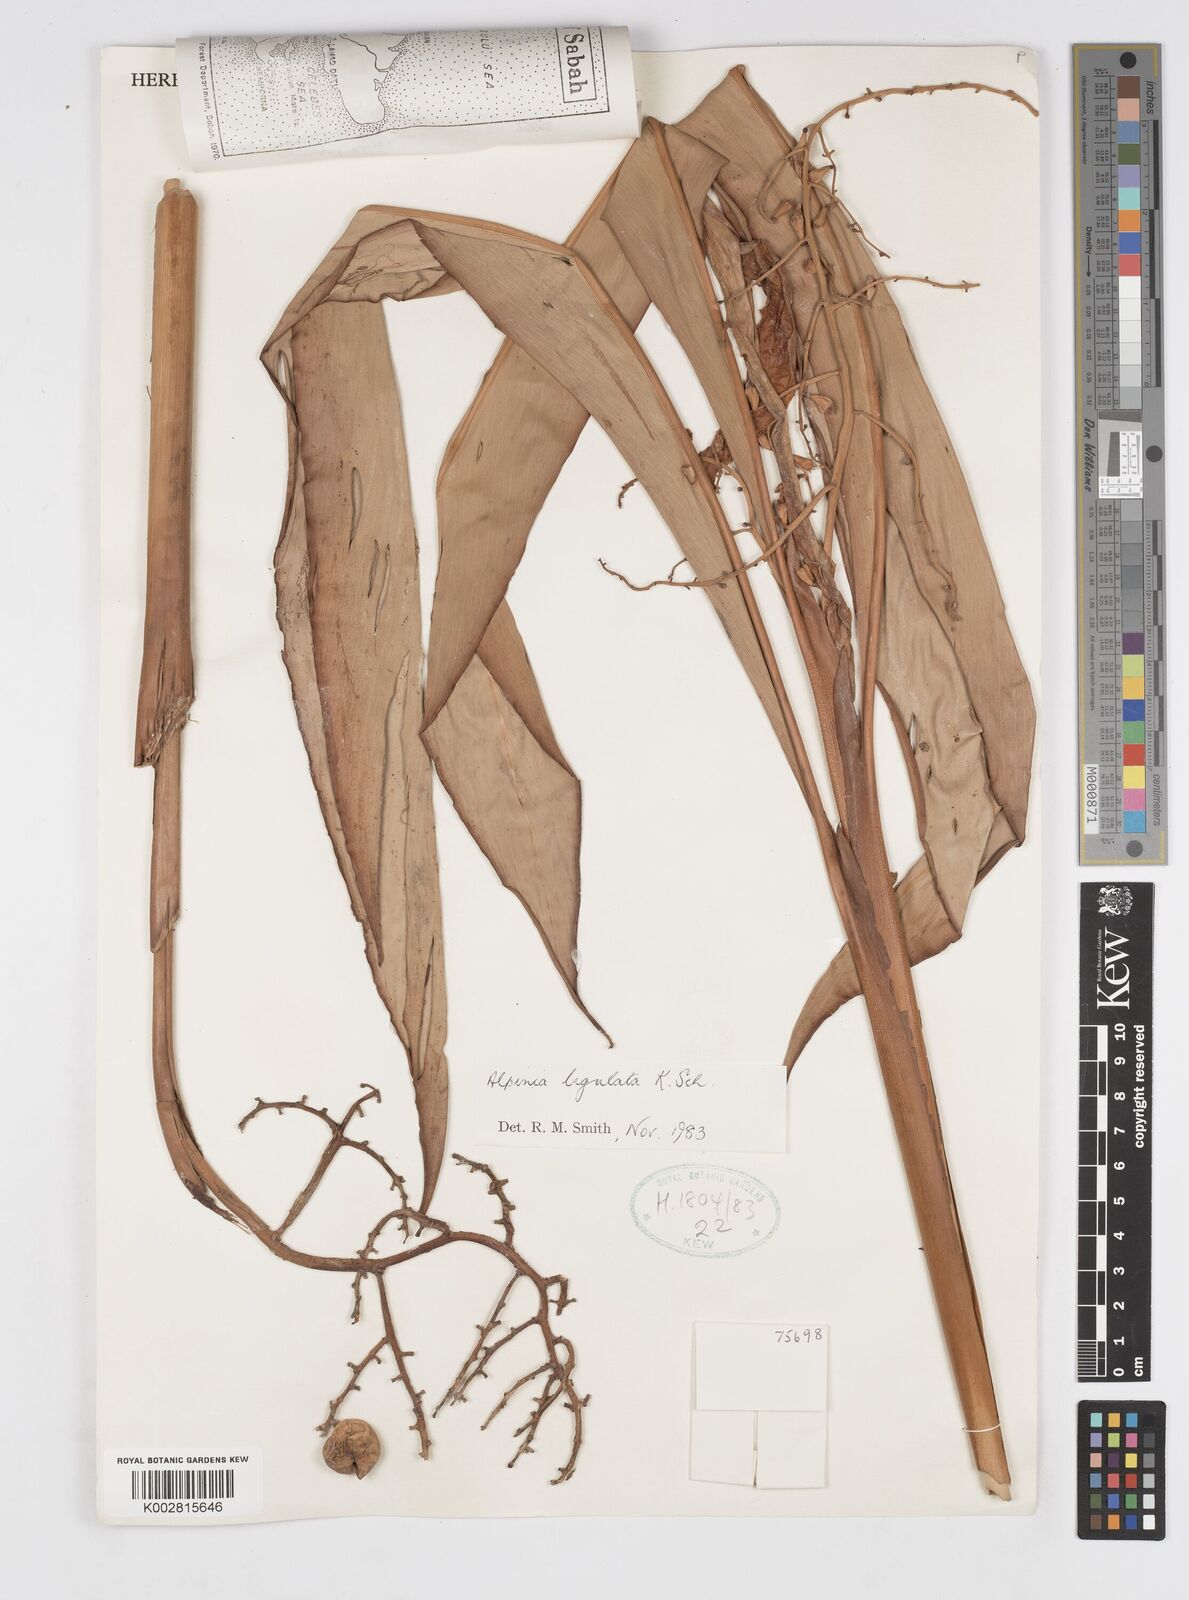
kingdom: Plantae
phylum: Tracheophyta
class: Liliopsida
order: Zingiberales
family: Zingiberaceae
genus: Alpinia
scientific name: Alpinia ligulata
